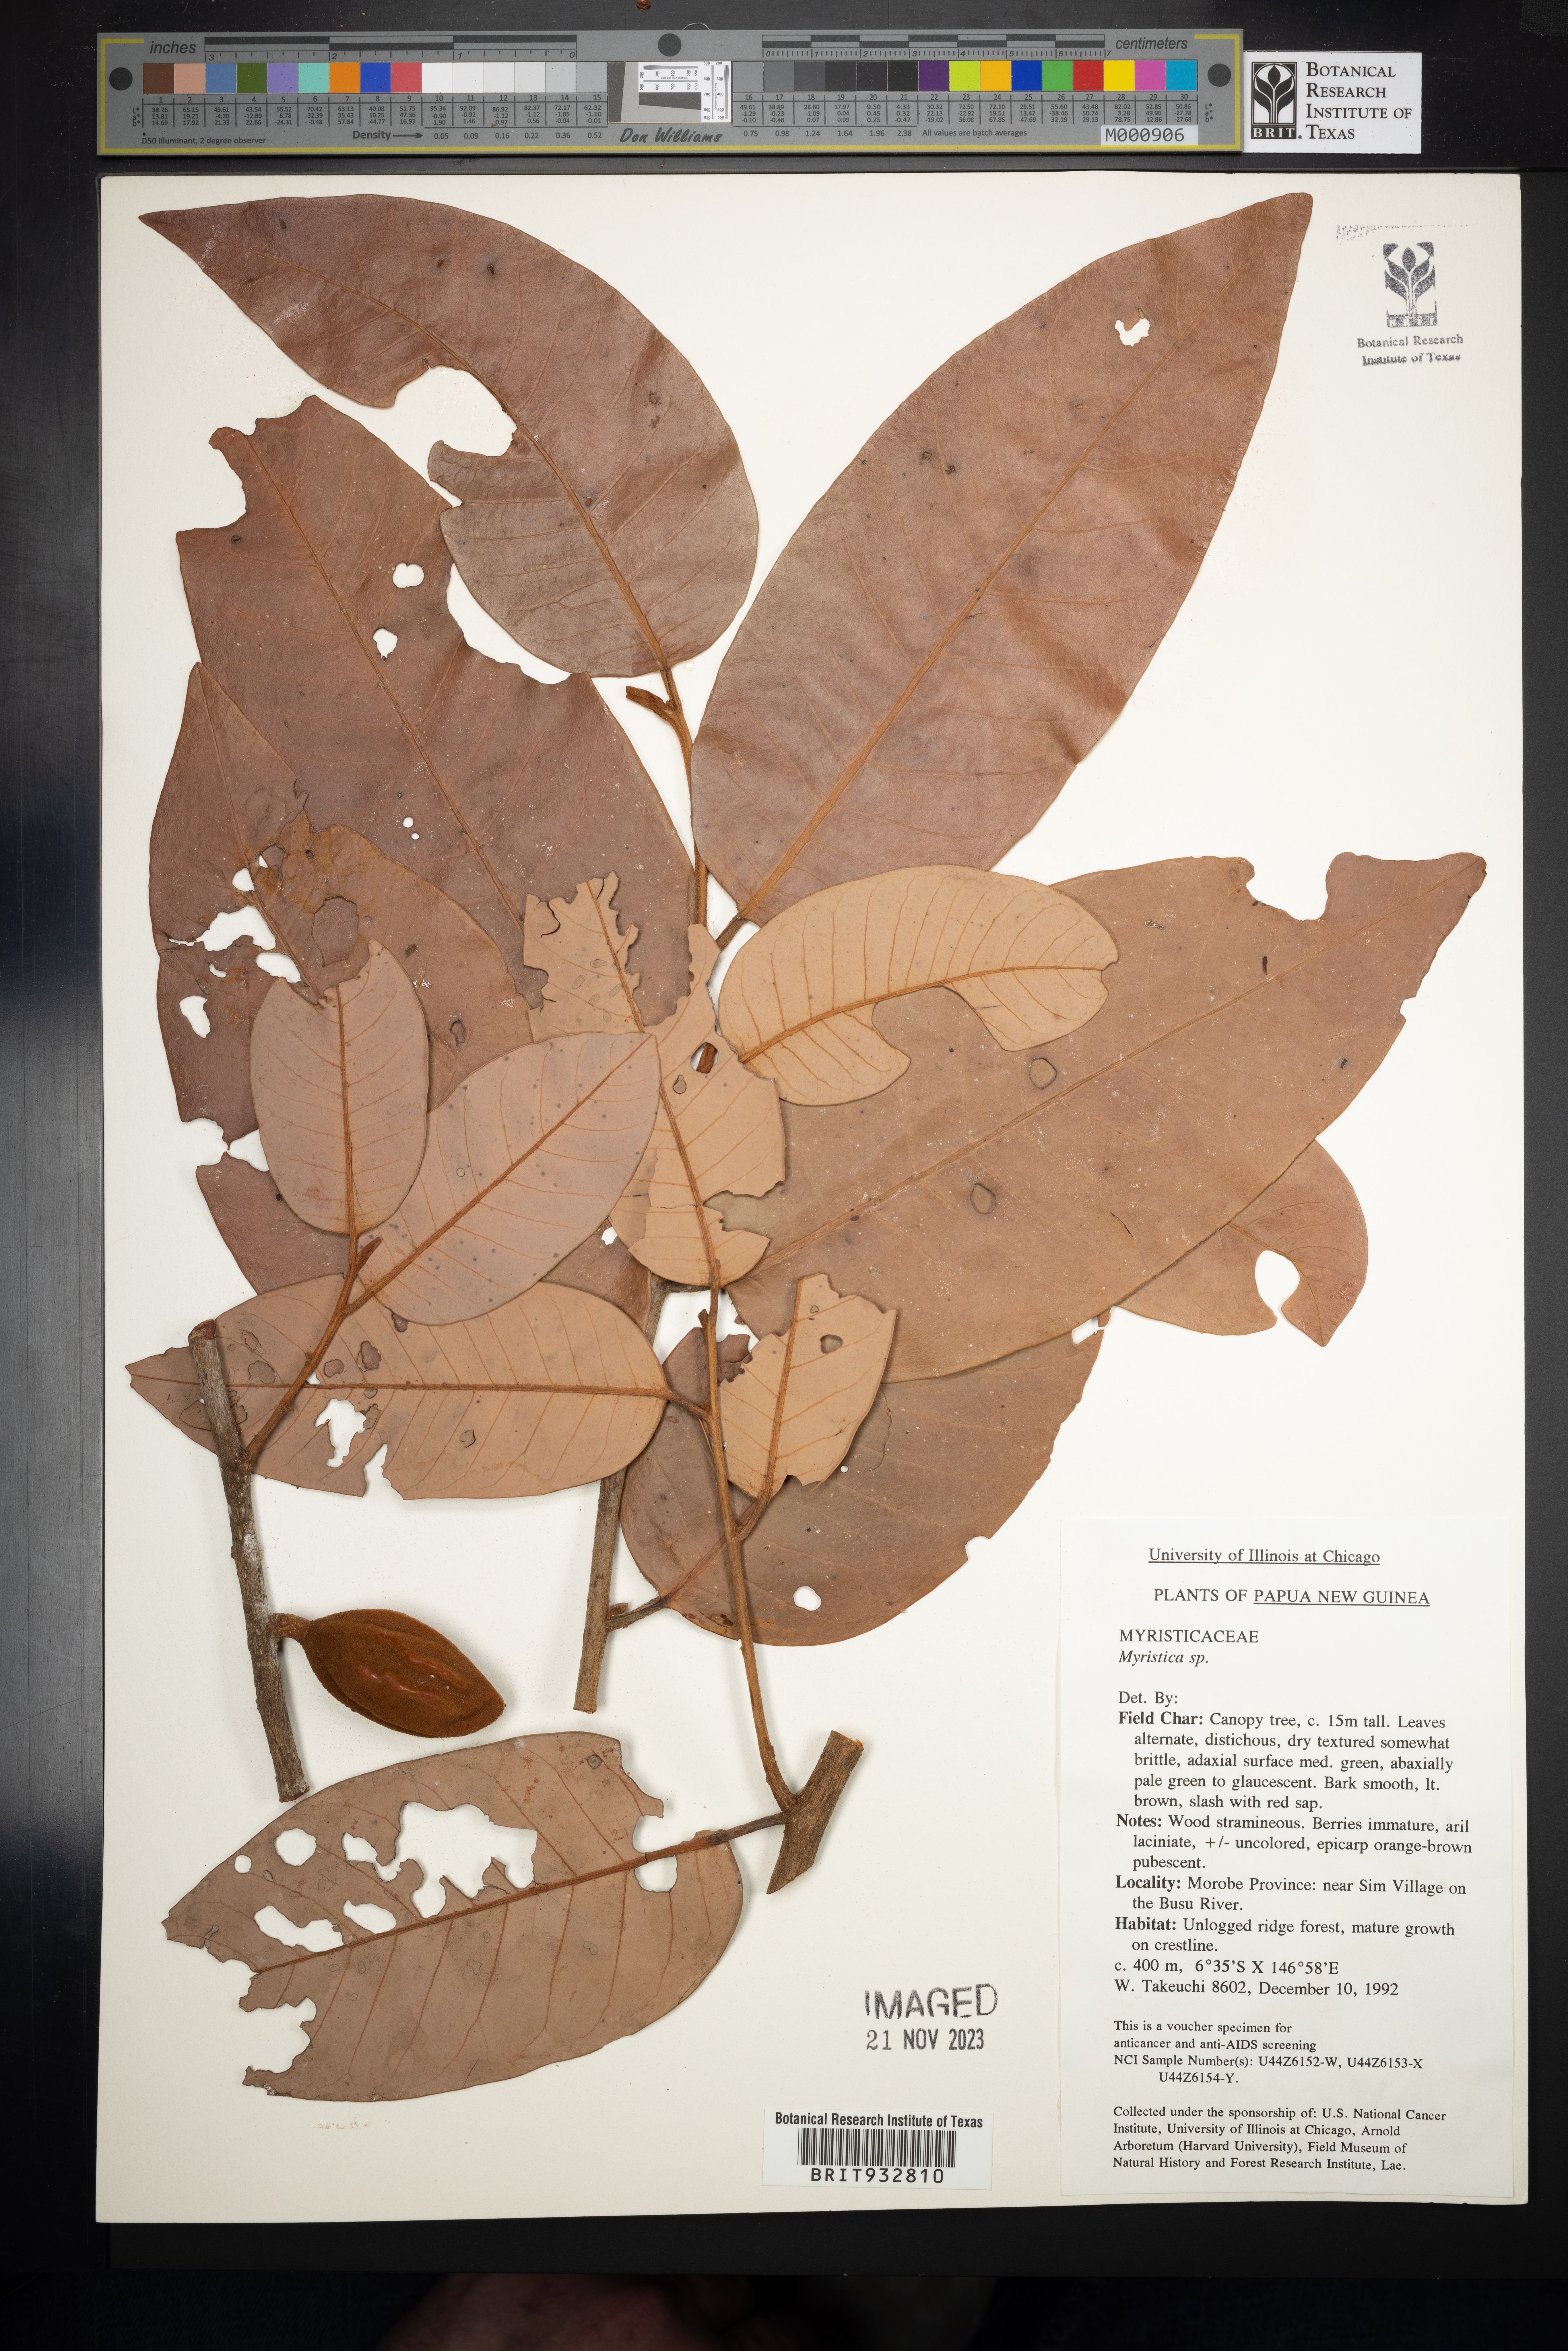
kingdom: Plantae
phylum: Tracheophyta
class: Magnoliopsida
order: Magnoliales
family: Myristicaceae
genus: Myristica
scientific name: Myristica
